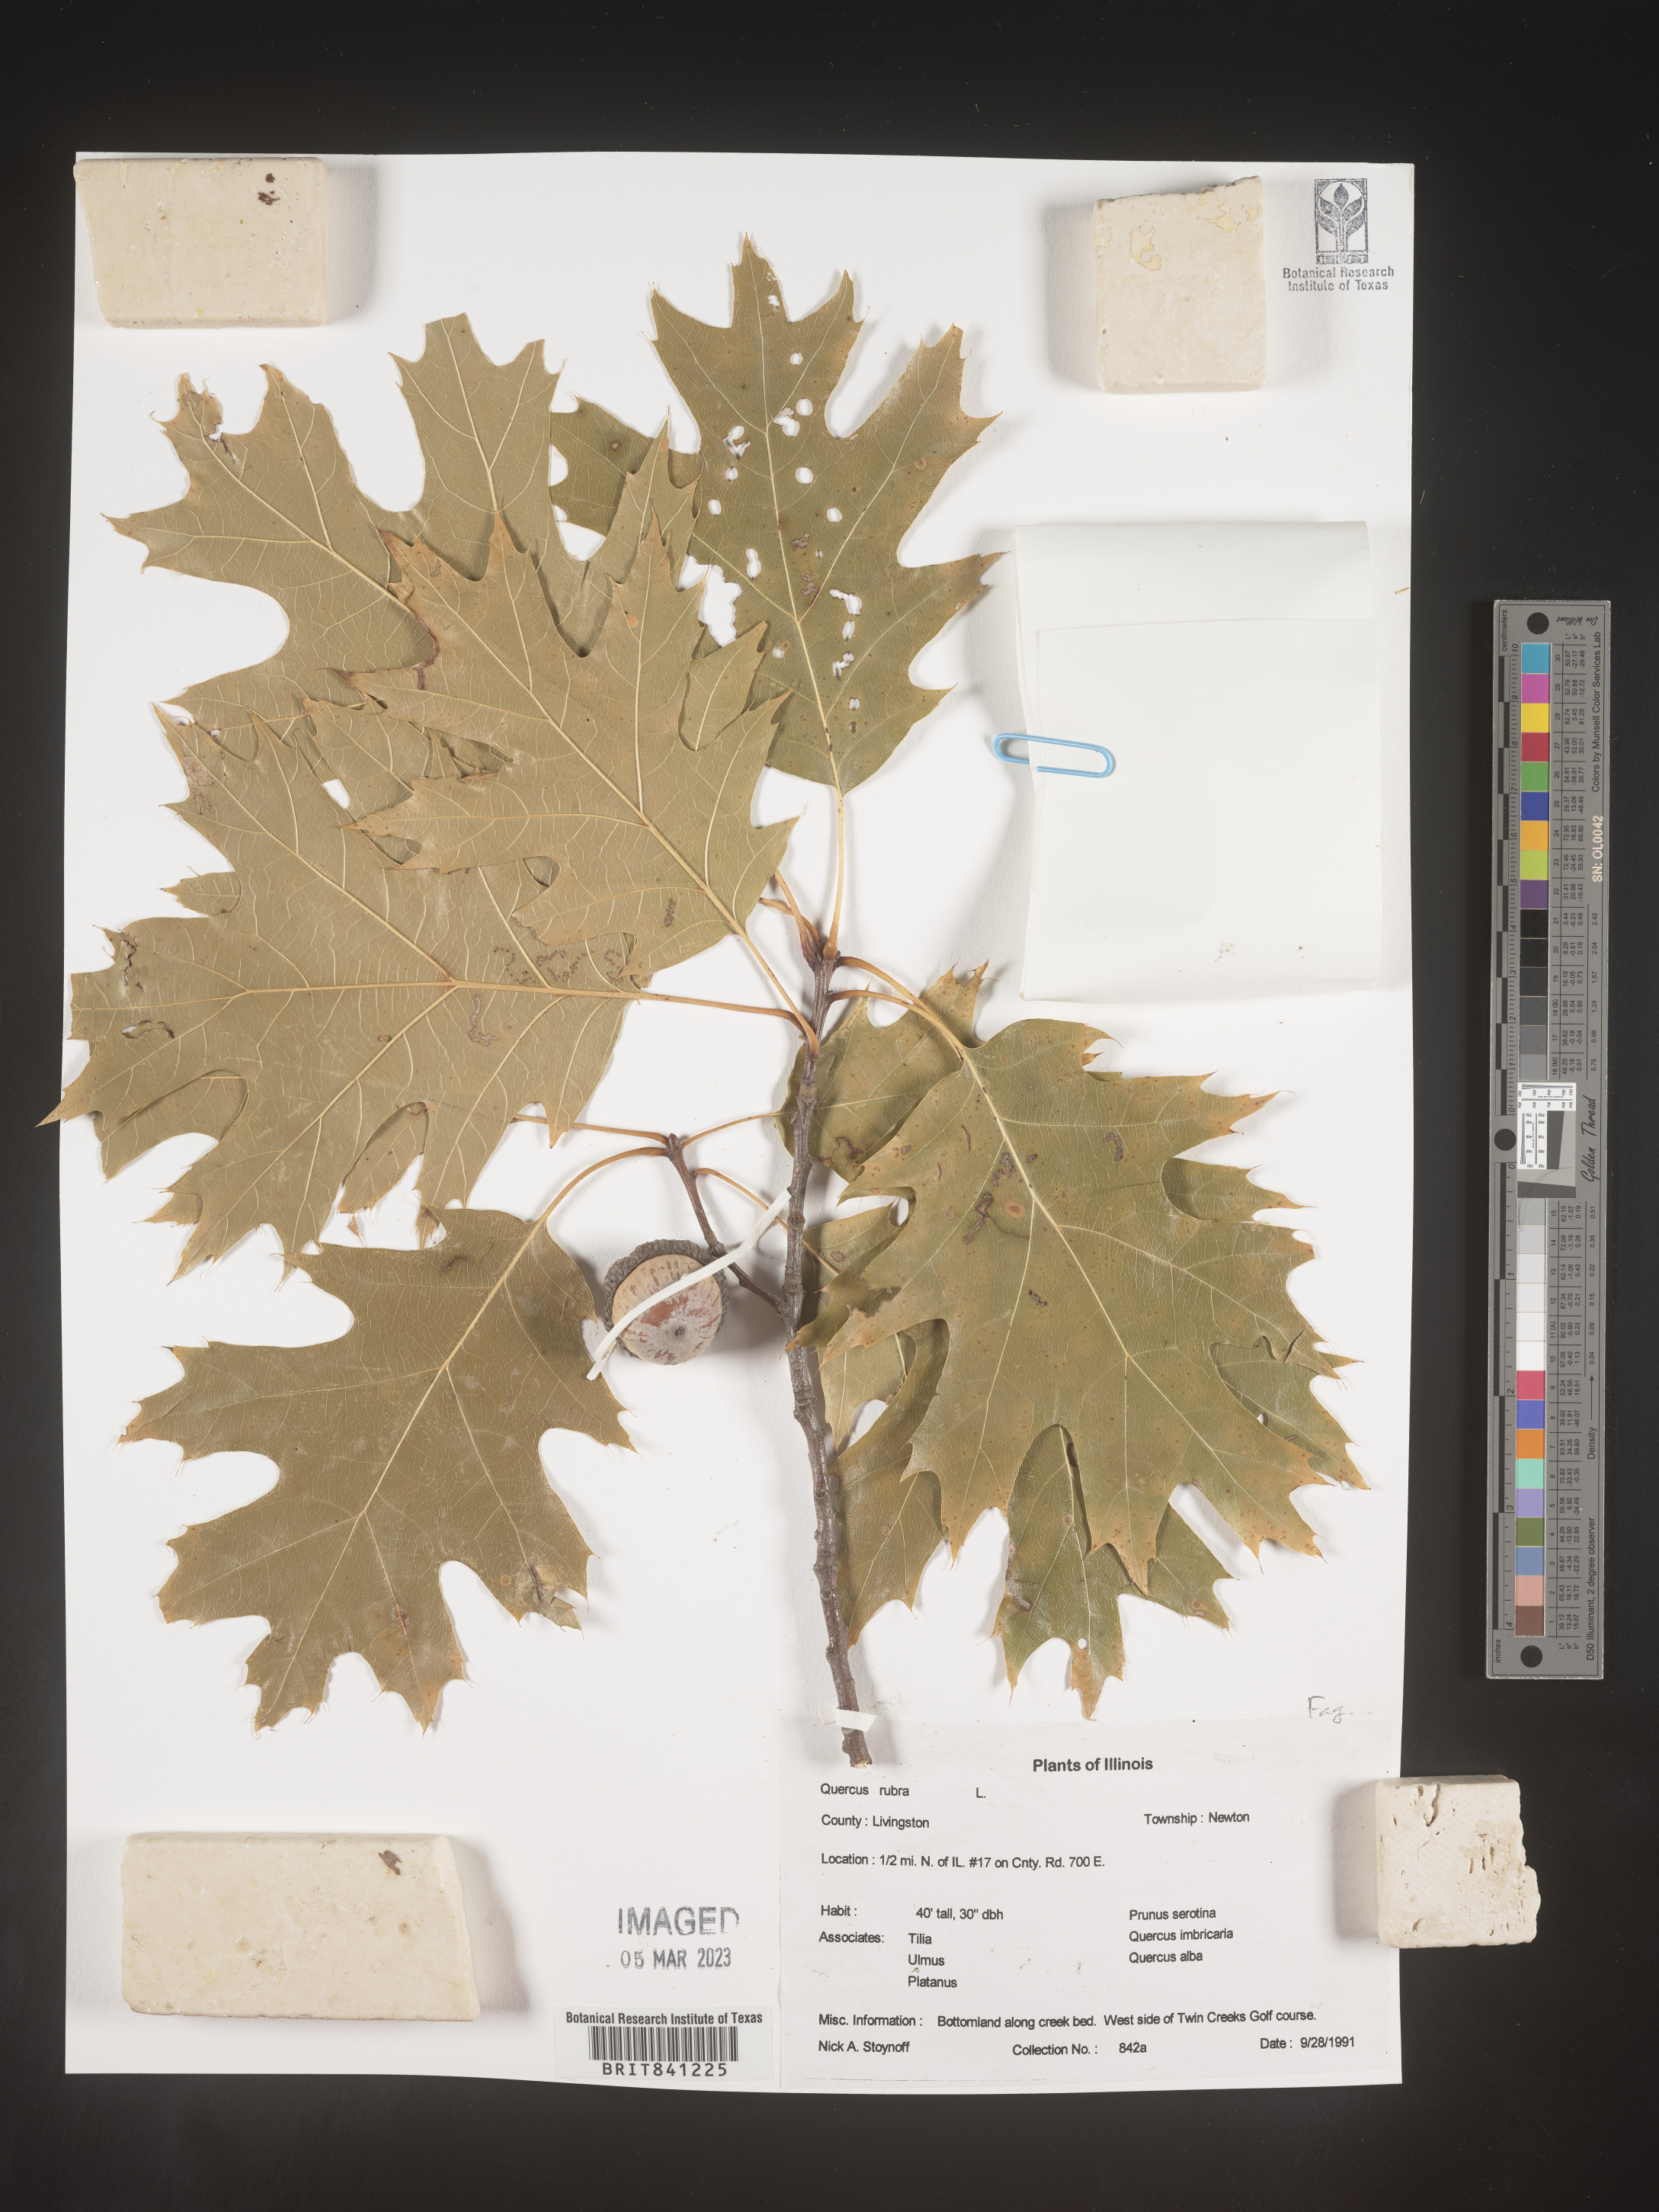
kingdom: Plantae
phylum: Tracheophyta
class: Magnoliopsida
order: Fagales
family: Fagaceae
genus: Quercus
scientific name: Quercus rubra
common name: Red oak
